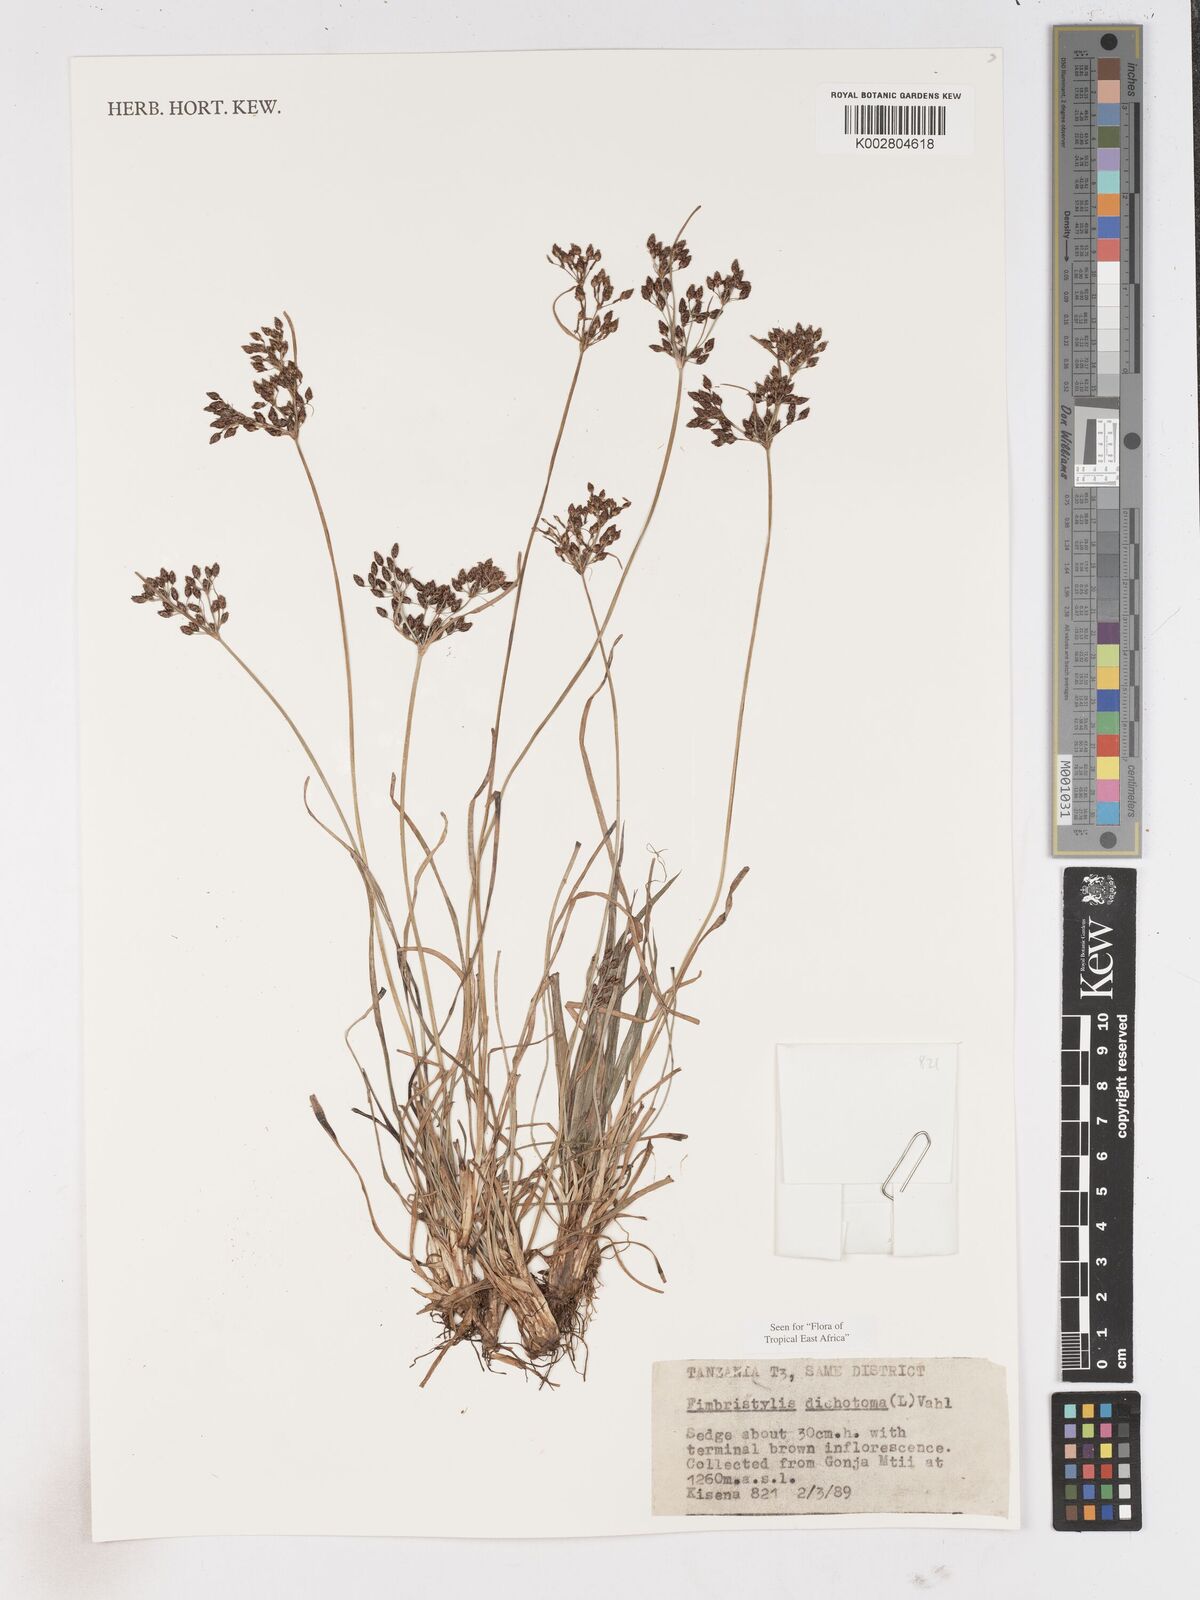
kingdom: Plantae
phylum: Tracheophyta
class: Liliopsida
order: Poales
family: Cyperaceae
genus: Fimbristylis
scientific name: Fimbristylis dichotoma
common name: Forked fimbry
